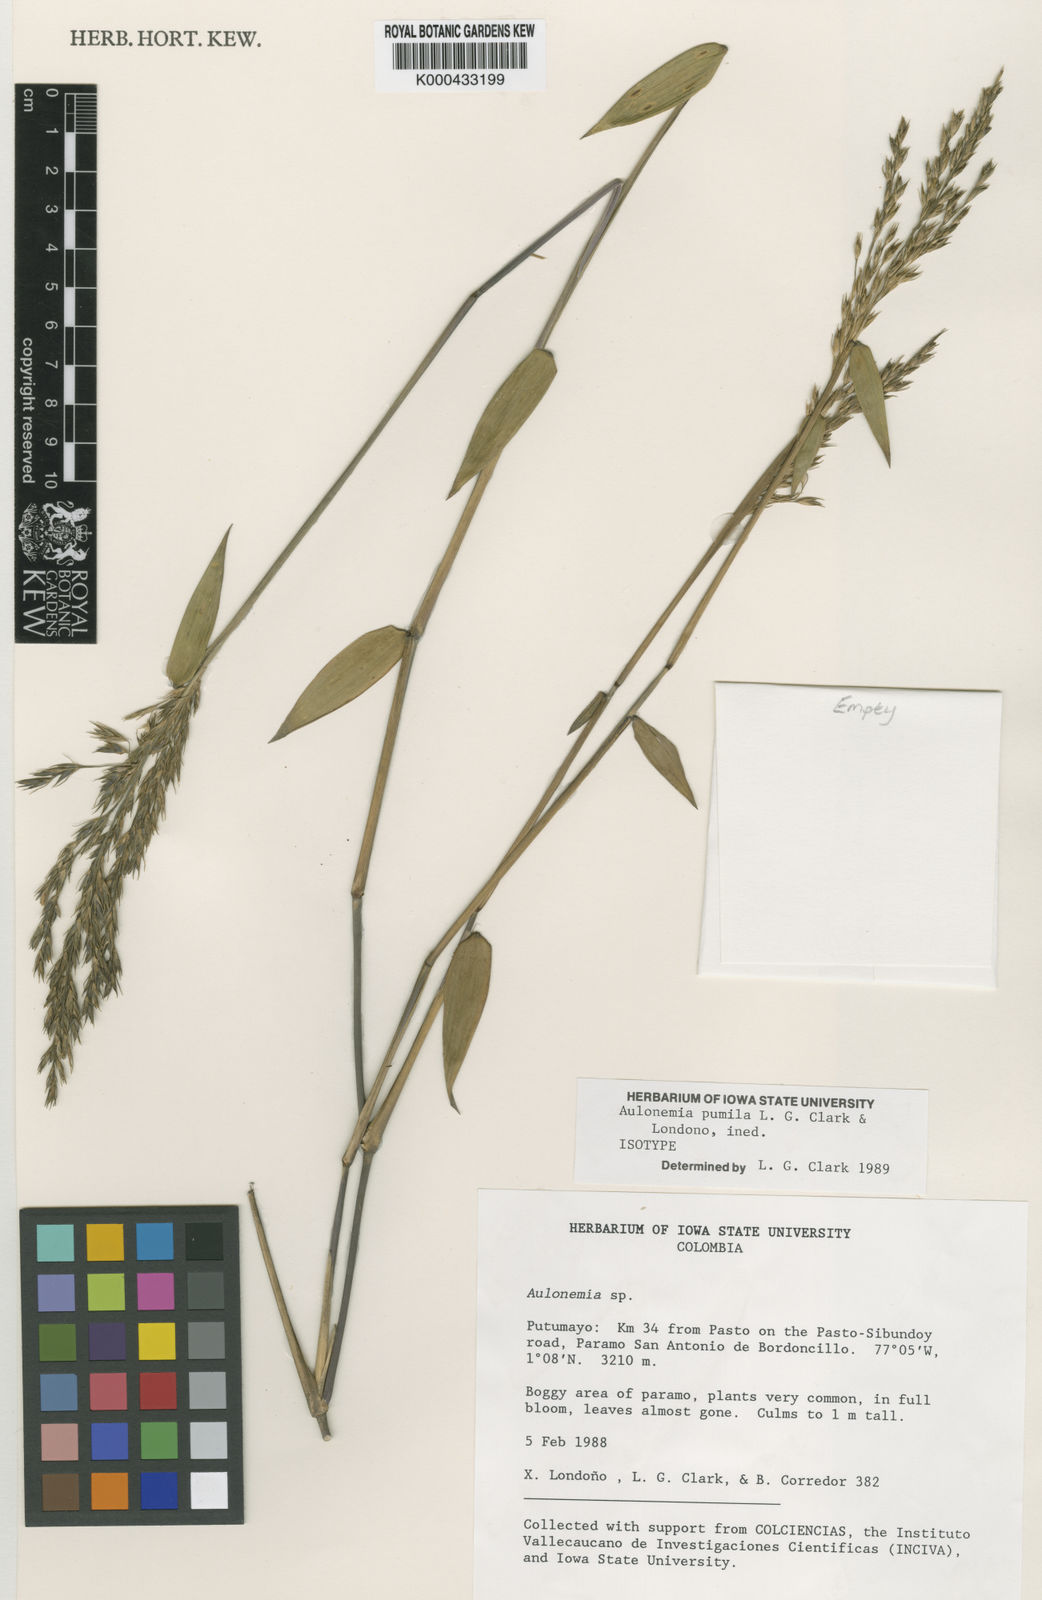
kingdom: Plantae
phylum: Tracheophyta
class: Liliopsida
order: Poales
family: Poaceae
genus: Aulonemia
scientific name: Aulonemia
